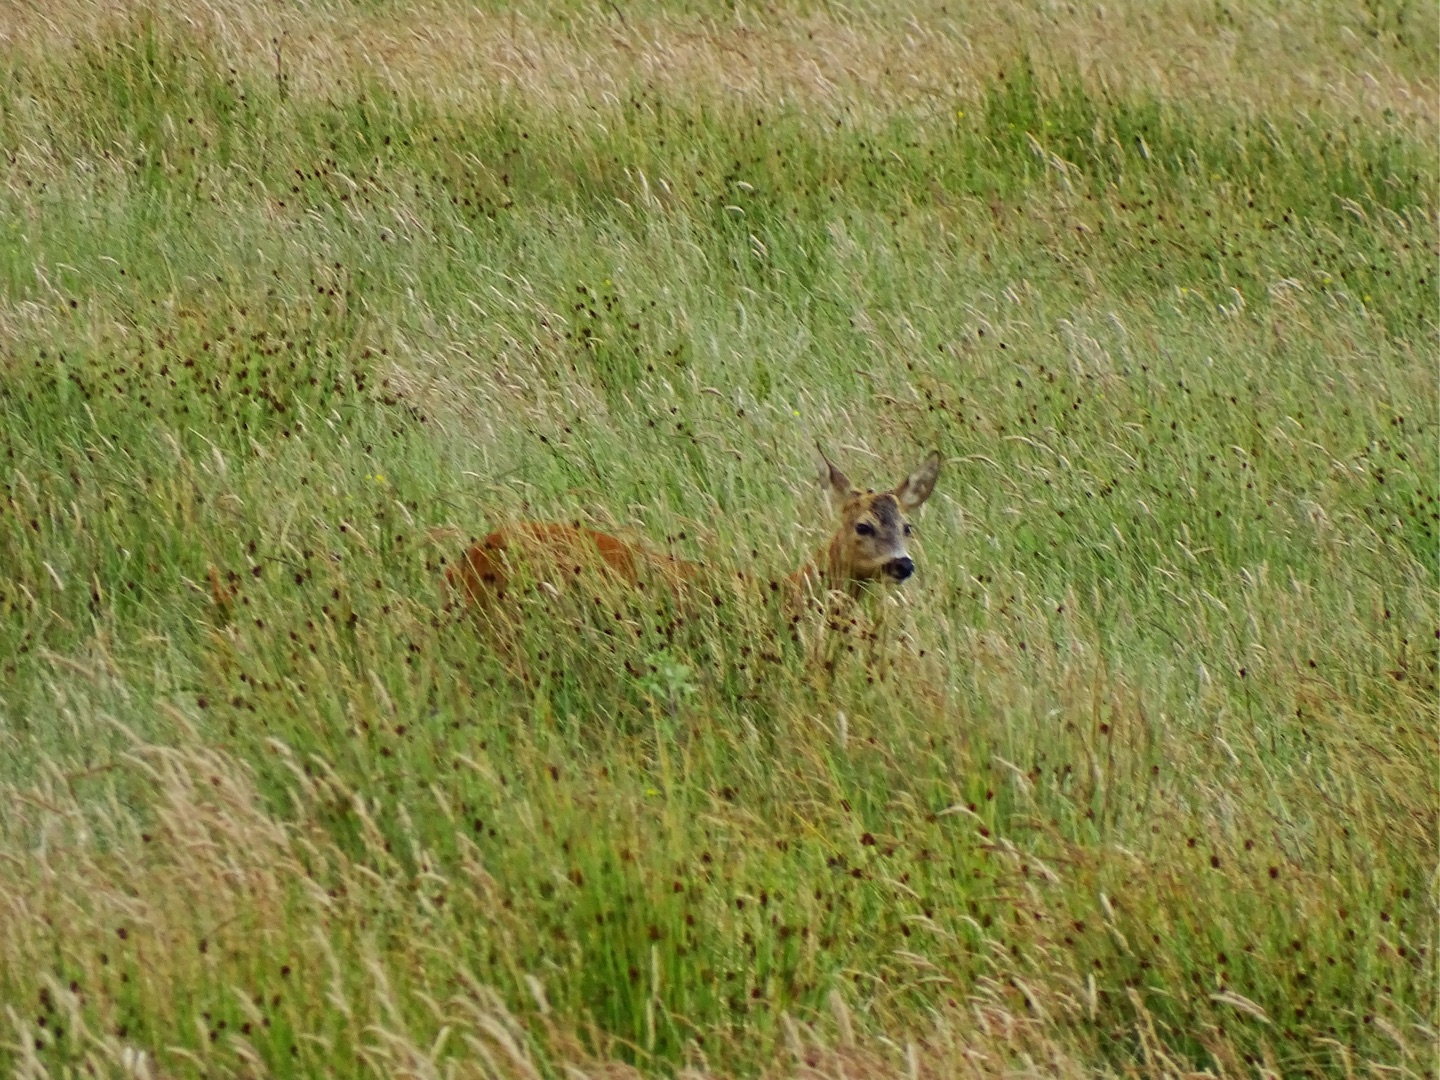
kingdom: Animalia
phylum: Chordata
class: Mammalia
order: Artiodactyla
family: Cervidae
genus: Capreolus
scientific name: Capreolus capreolus
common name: Rådyr
